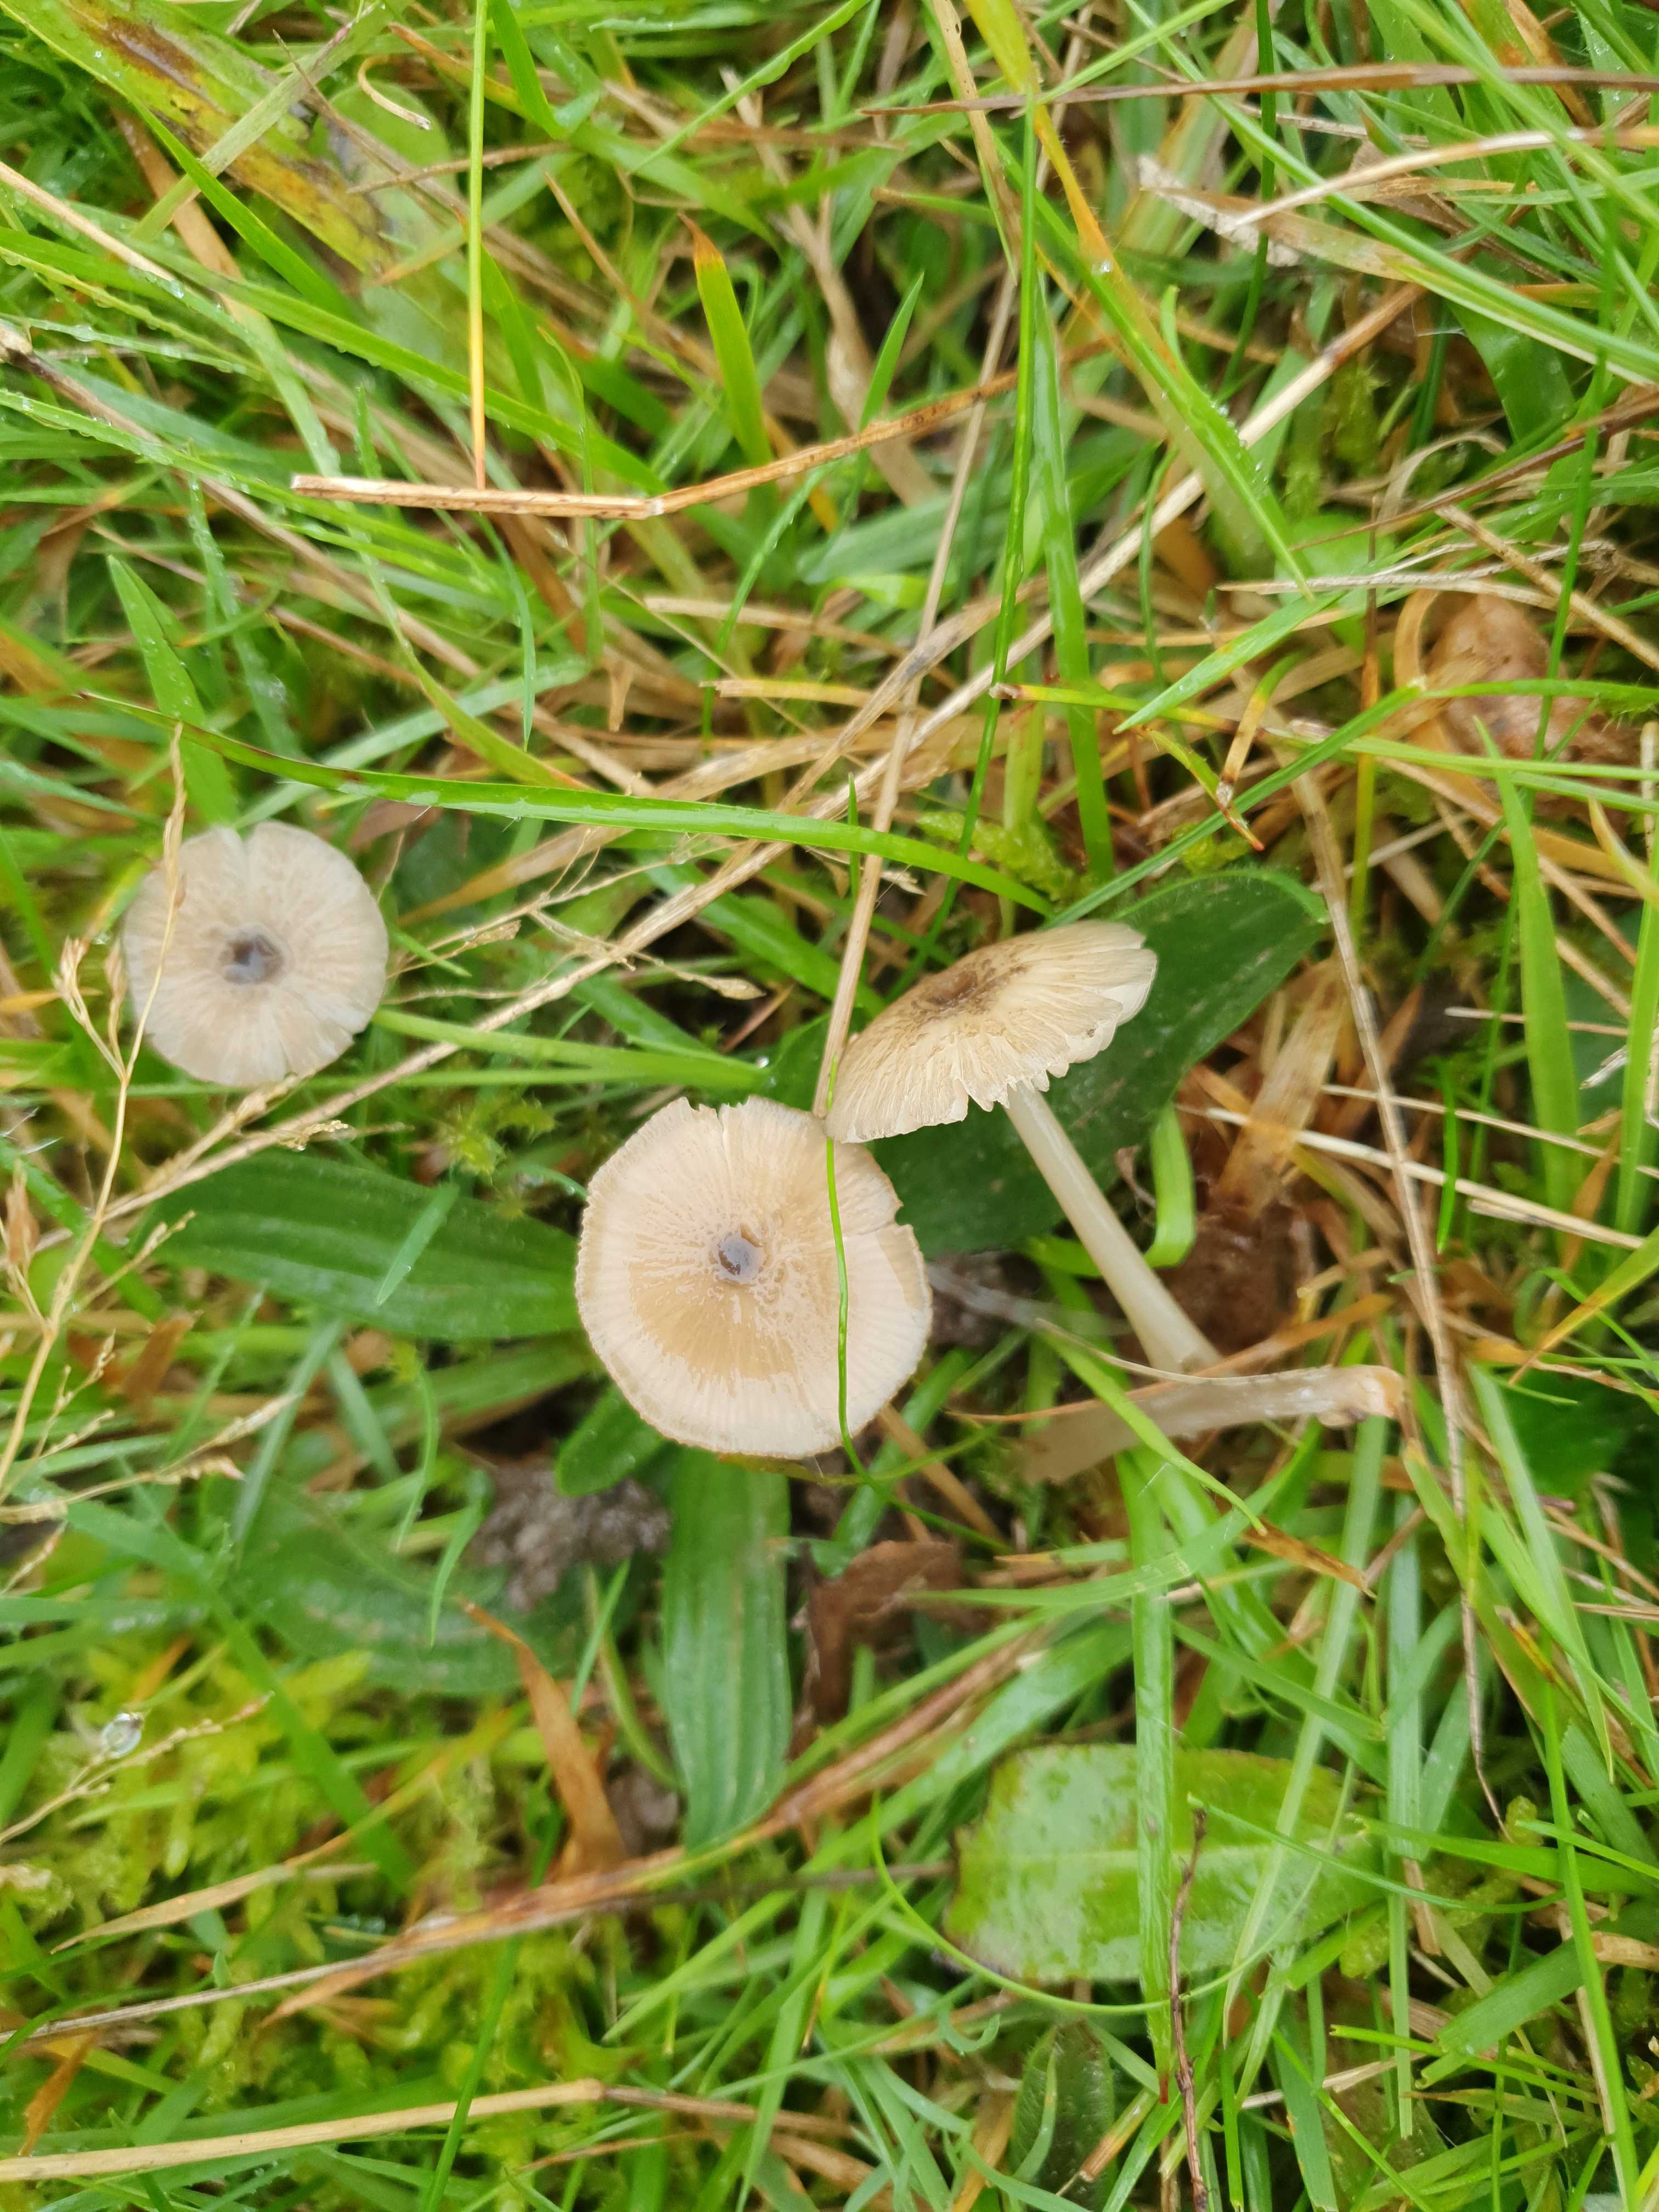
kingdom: Fungi
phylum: Basidiomycota
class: Agaricomycetes
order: Agaricales
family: Entolomataceae
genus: Entoloma
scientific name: Entoloma exile
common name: rødplettet rødblad
